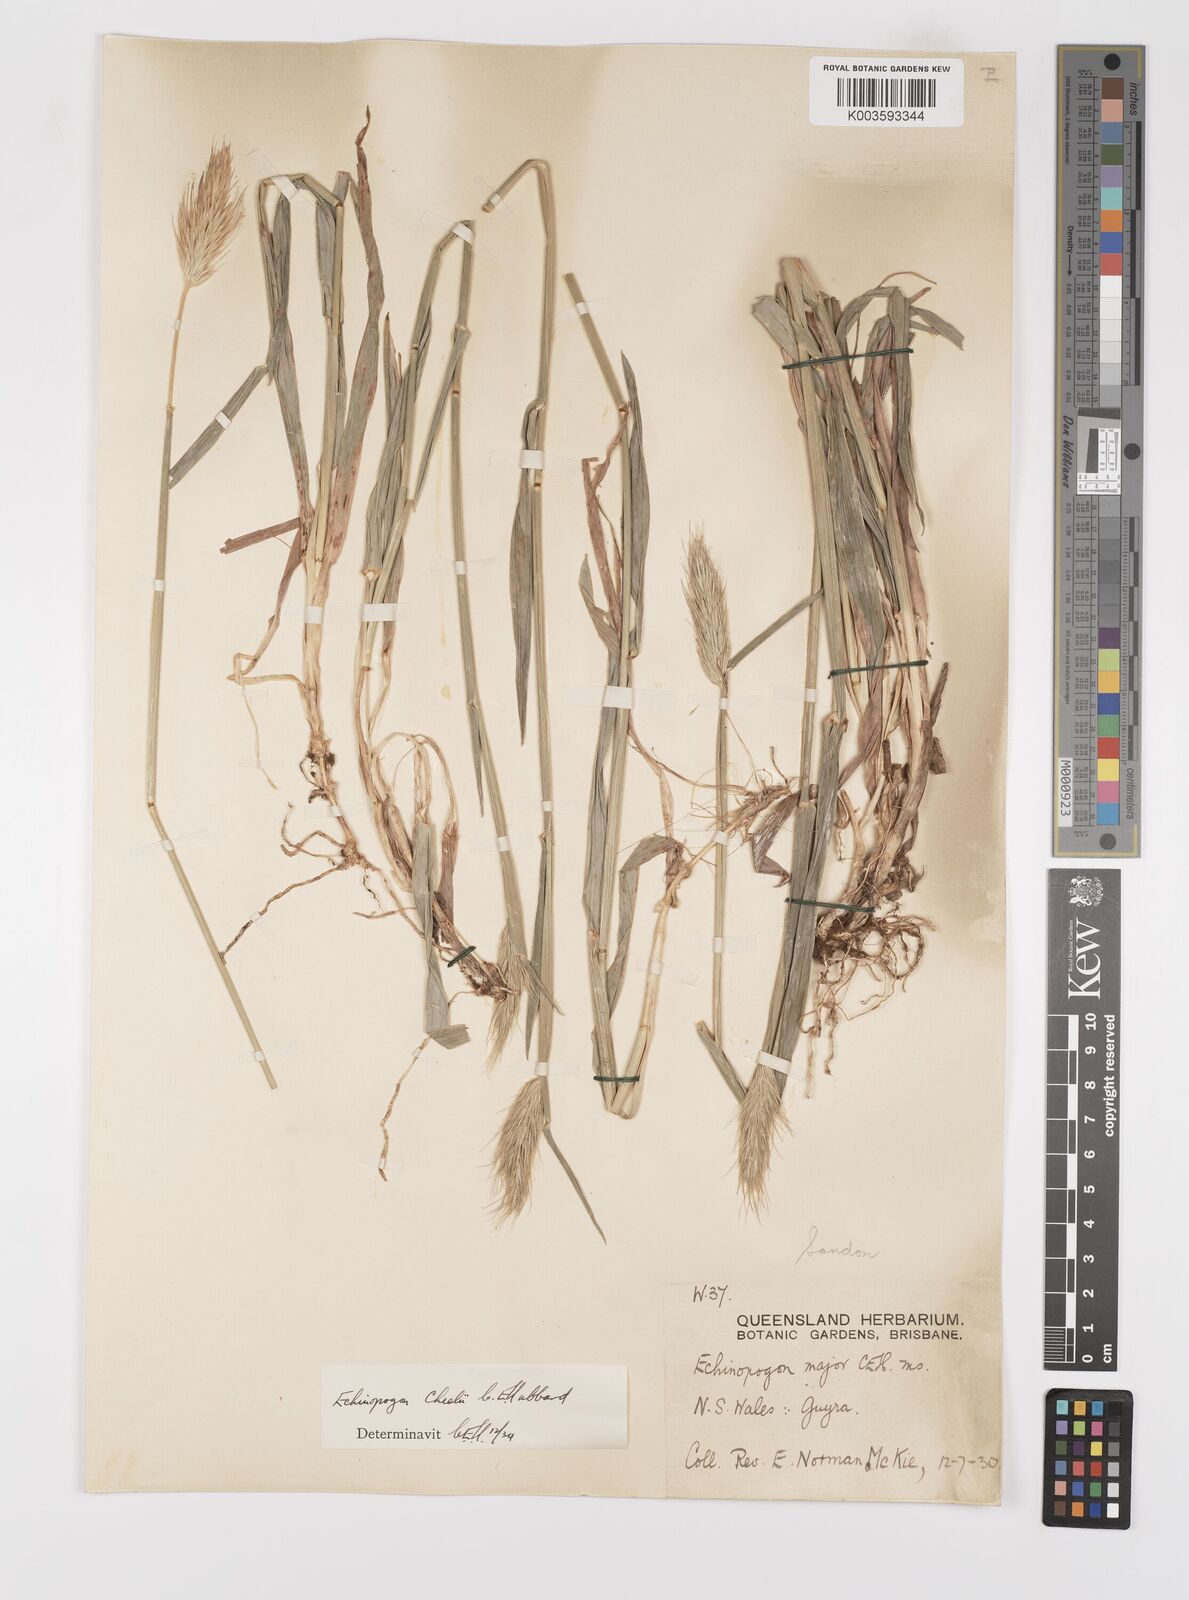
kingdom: Plantae
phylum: Tracheophyta
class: Liliopsida
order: Poales
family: Poaceae
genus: Echinopogon
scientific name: Echinopogon cheelii
